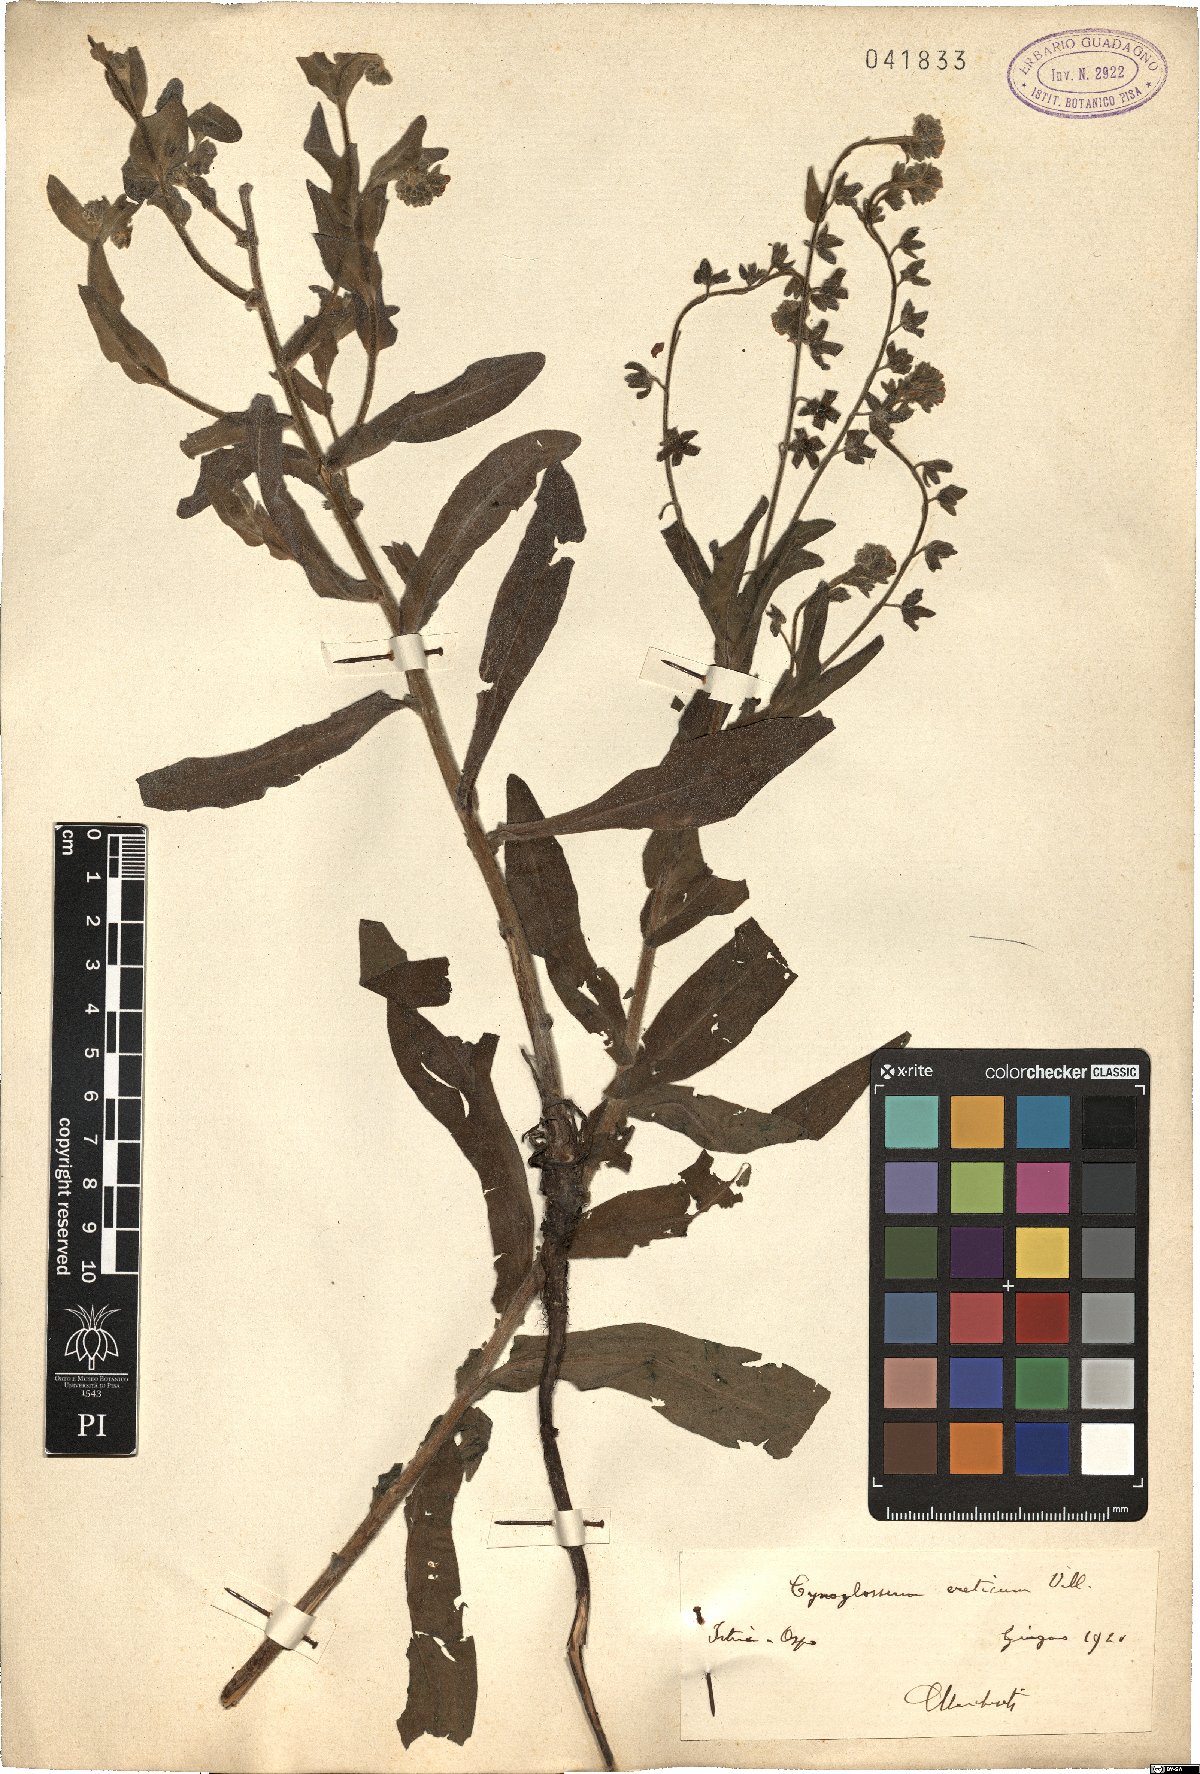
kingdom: Plantae
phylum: Tracheophyta
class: Magnoliopsida
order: Boraginales
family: Boraginaceae
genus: Cynoglossum
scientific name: Cynoglossum creticum
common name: Blue hound's tongue
